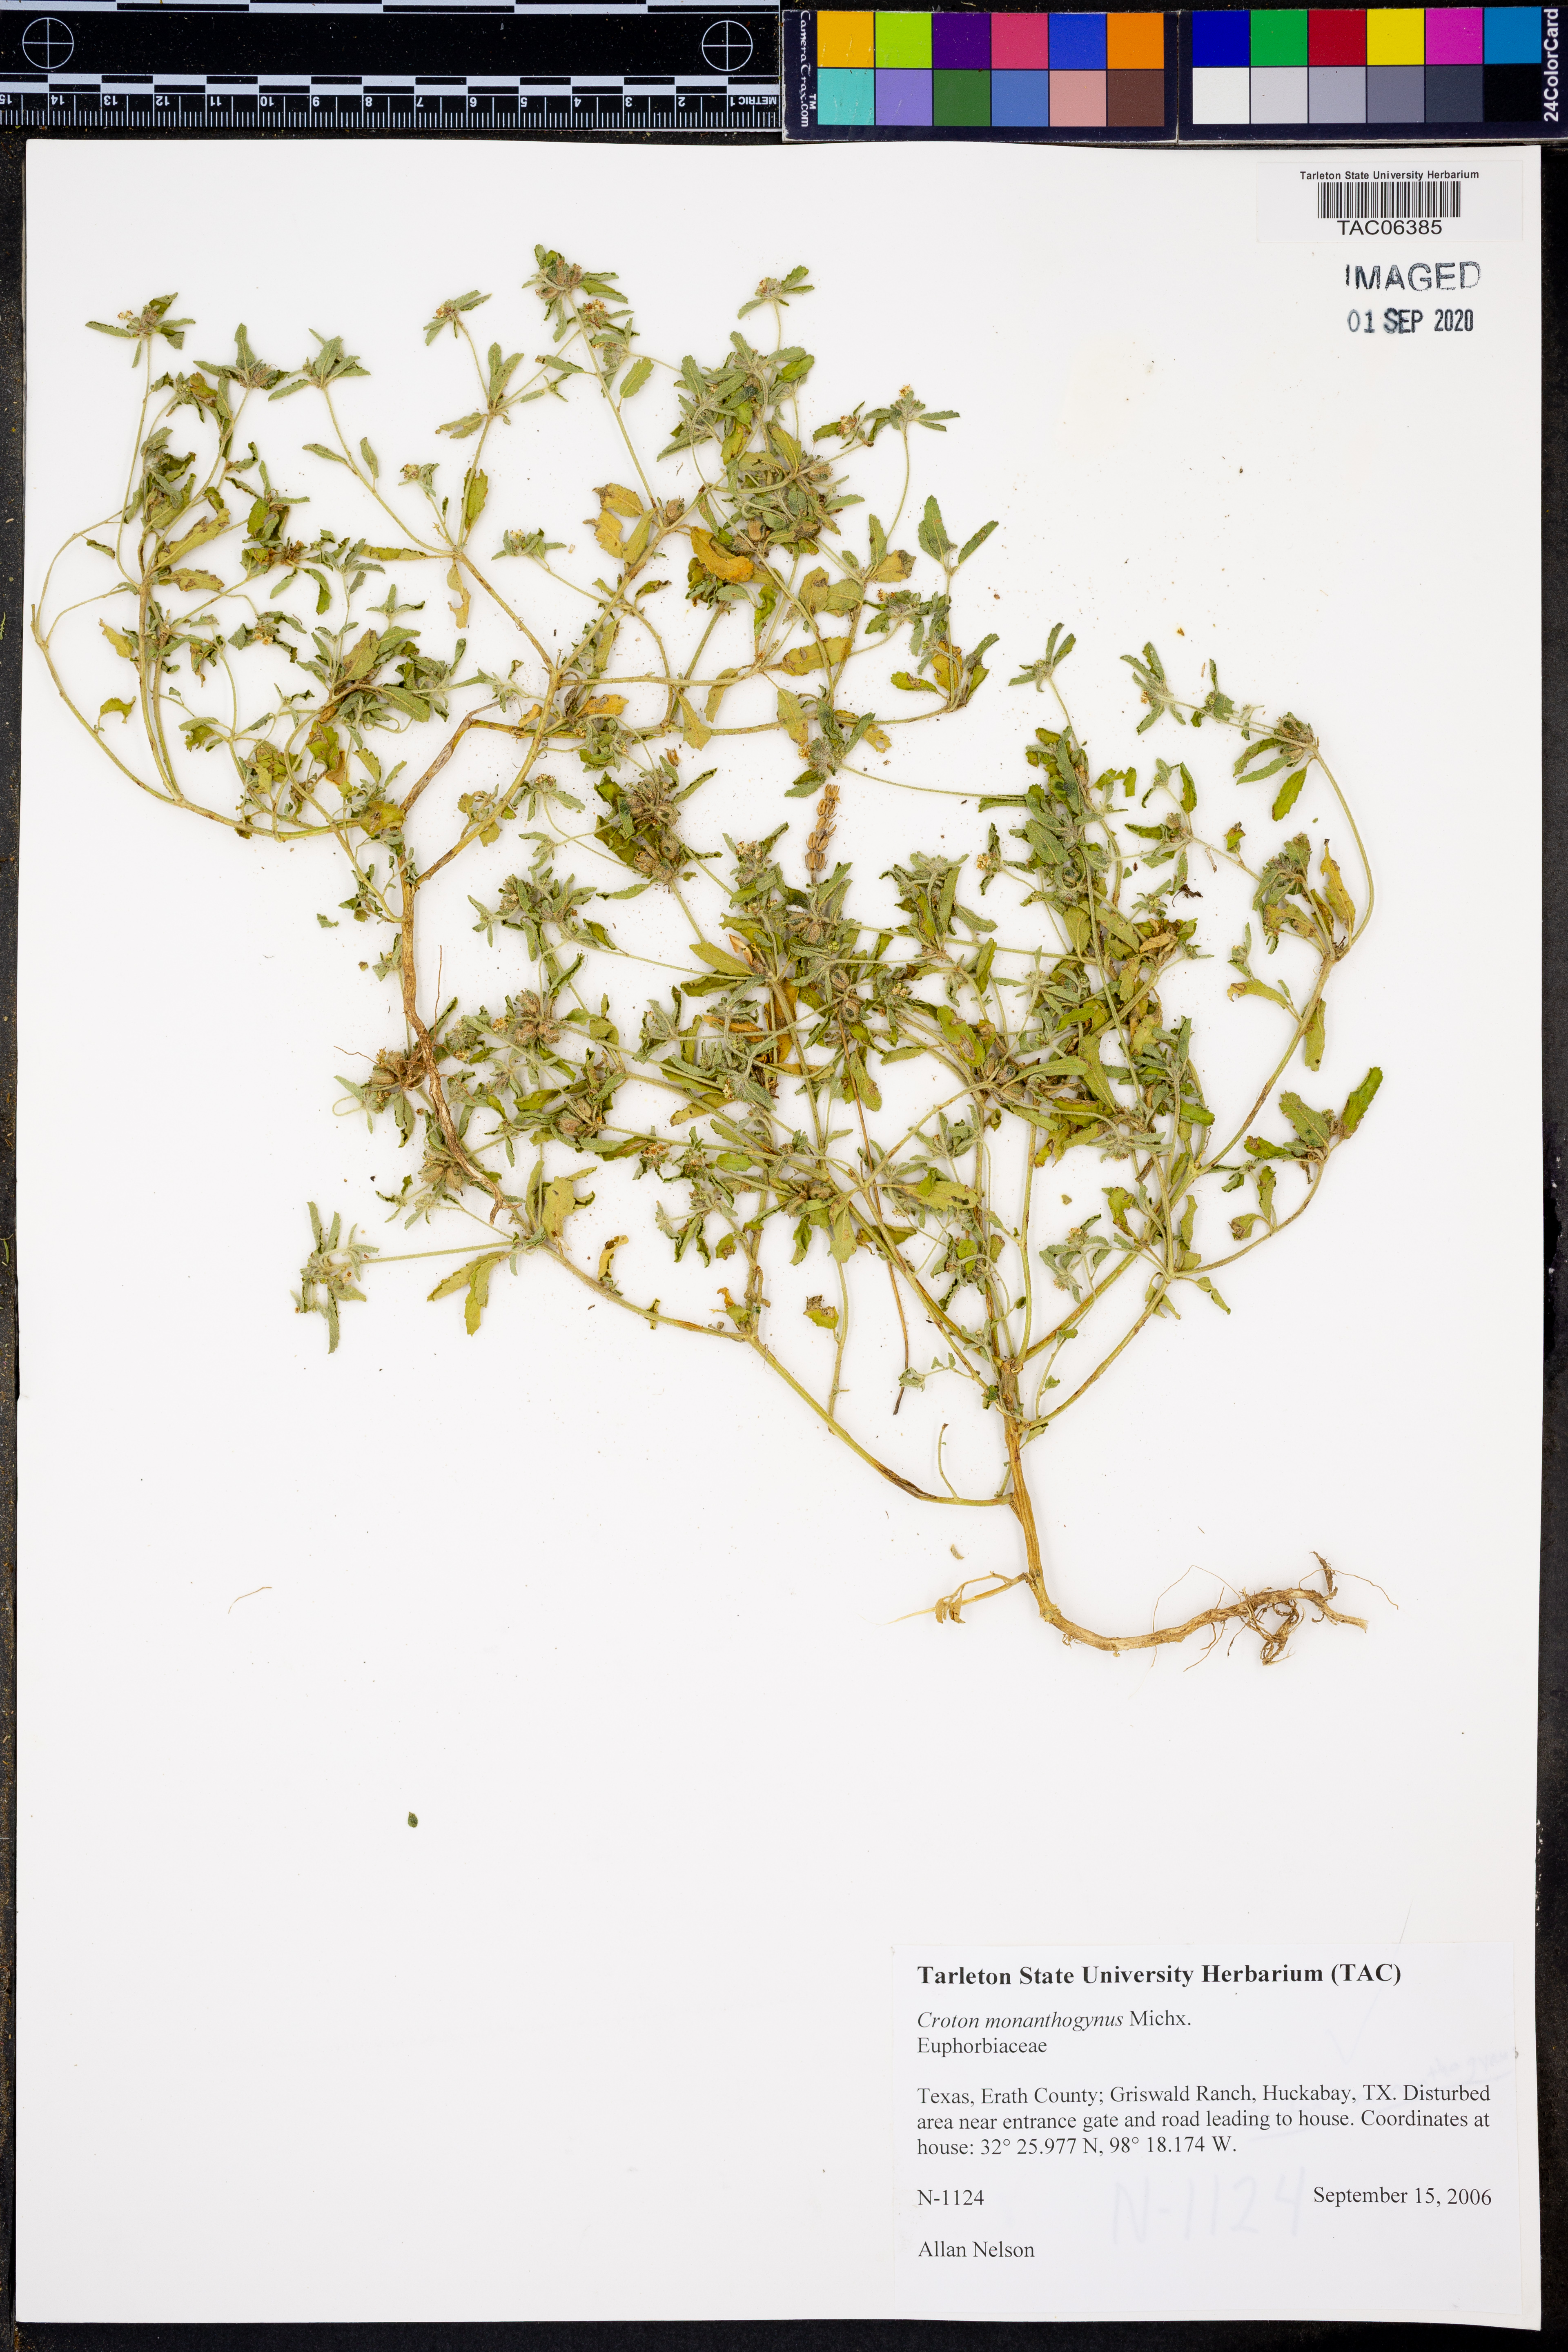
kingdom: Plantae
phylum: Tracheophyta
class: Magnoliopsida
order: Malpighiales
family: Euphorbiaceae
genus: Croton
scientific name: Croton monanthogynus
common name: One-seed croton
